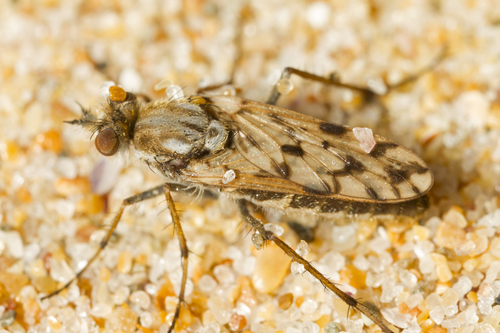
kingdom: Animalia
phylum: Arthropoda
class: Insecta
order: Diptera
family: Therevidae
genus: Acantothereva
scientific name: Acantothereva oblata
